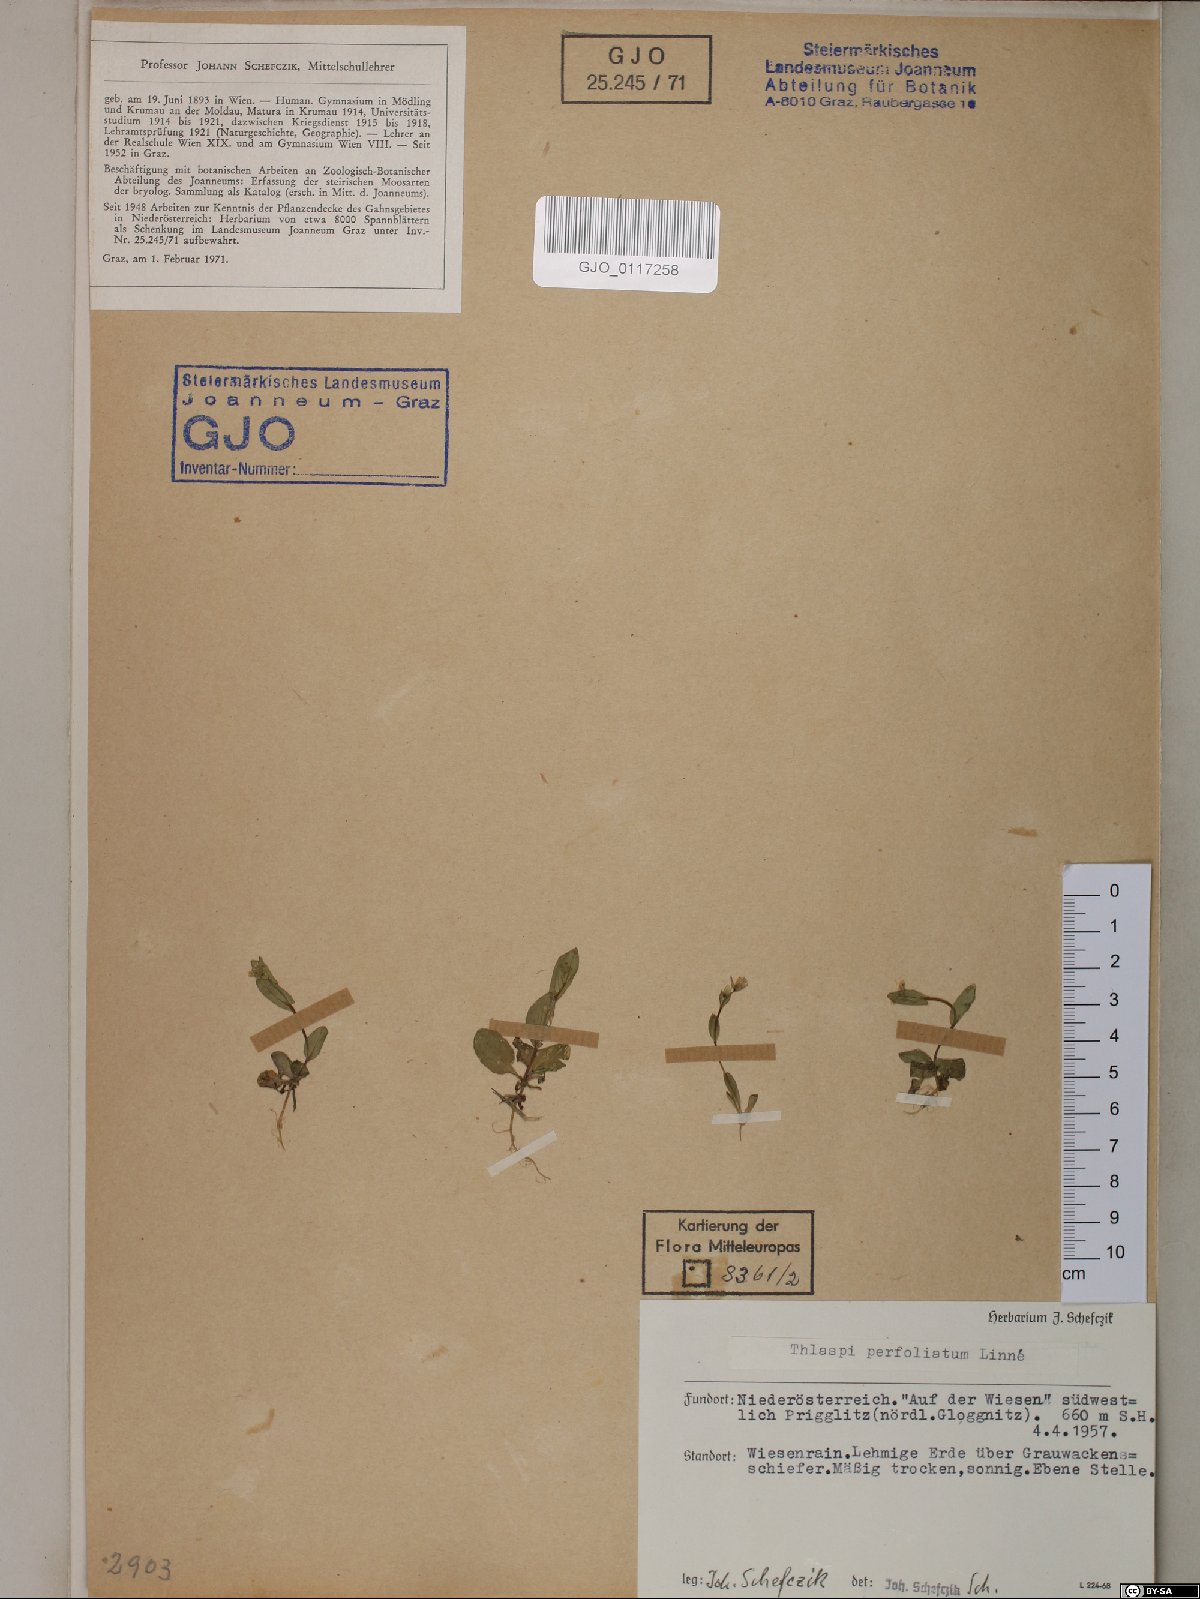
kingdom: Plantae
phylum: Tracheophyta
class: Magnoliopsida
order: Brassicales
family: Brassicaceae
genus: Noccaea
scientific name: Noccaea perfoliata
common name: Perfoliate pennycress
